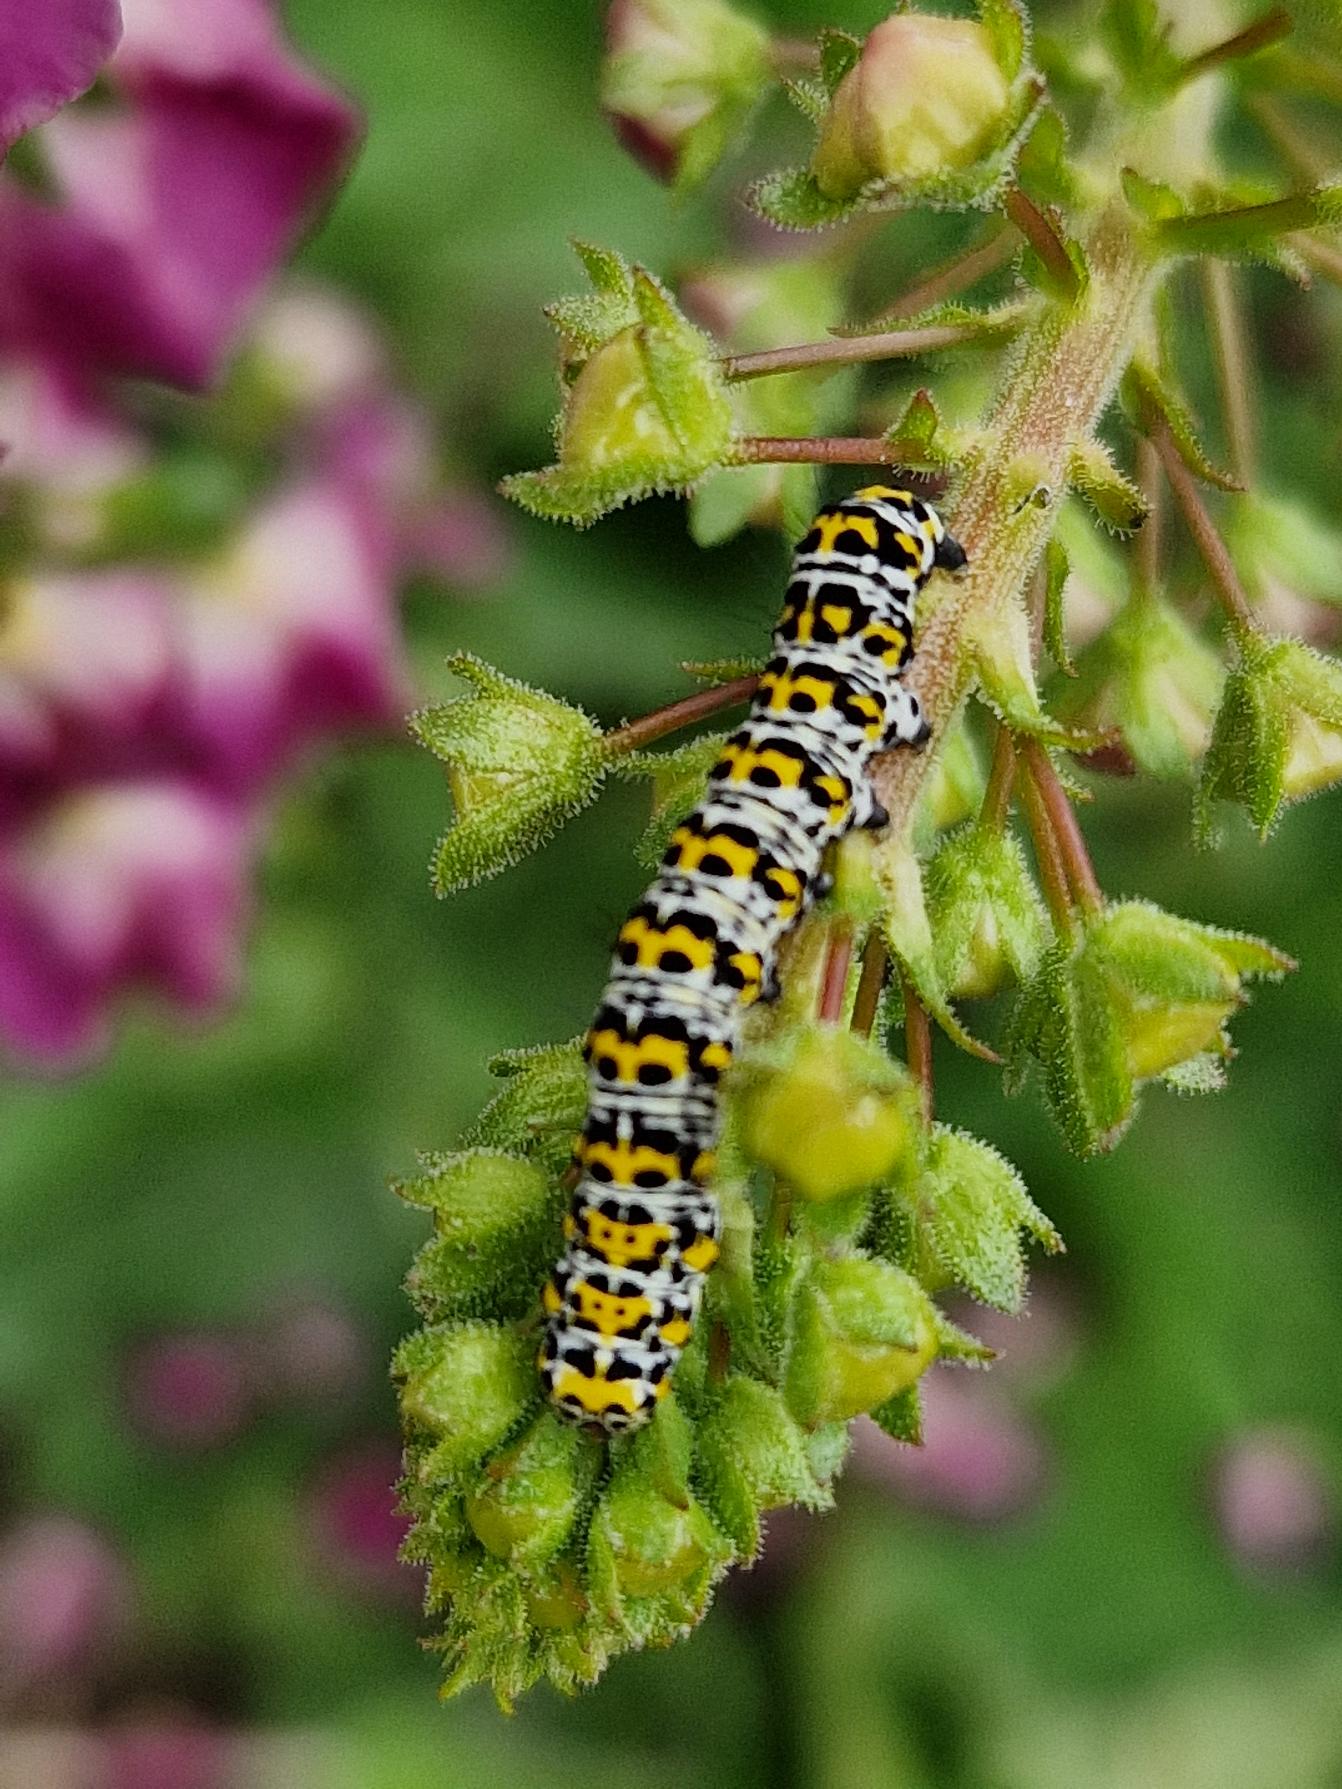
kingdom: Animalia
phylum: Arthropoda
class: Insecta
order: Lepidoptera
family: Noctuidae
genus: Cucullia
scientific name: Cucullia verbasci
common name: Filtbladet kongelys-hætteugle
